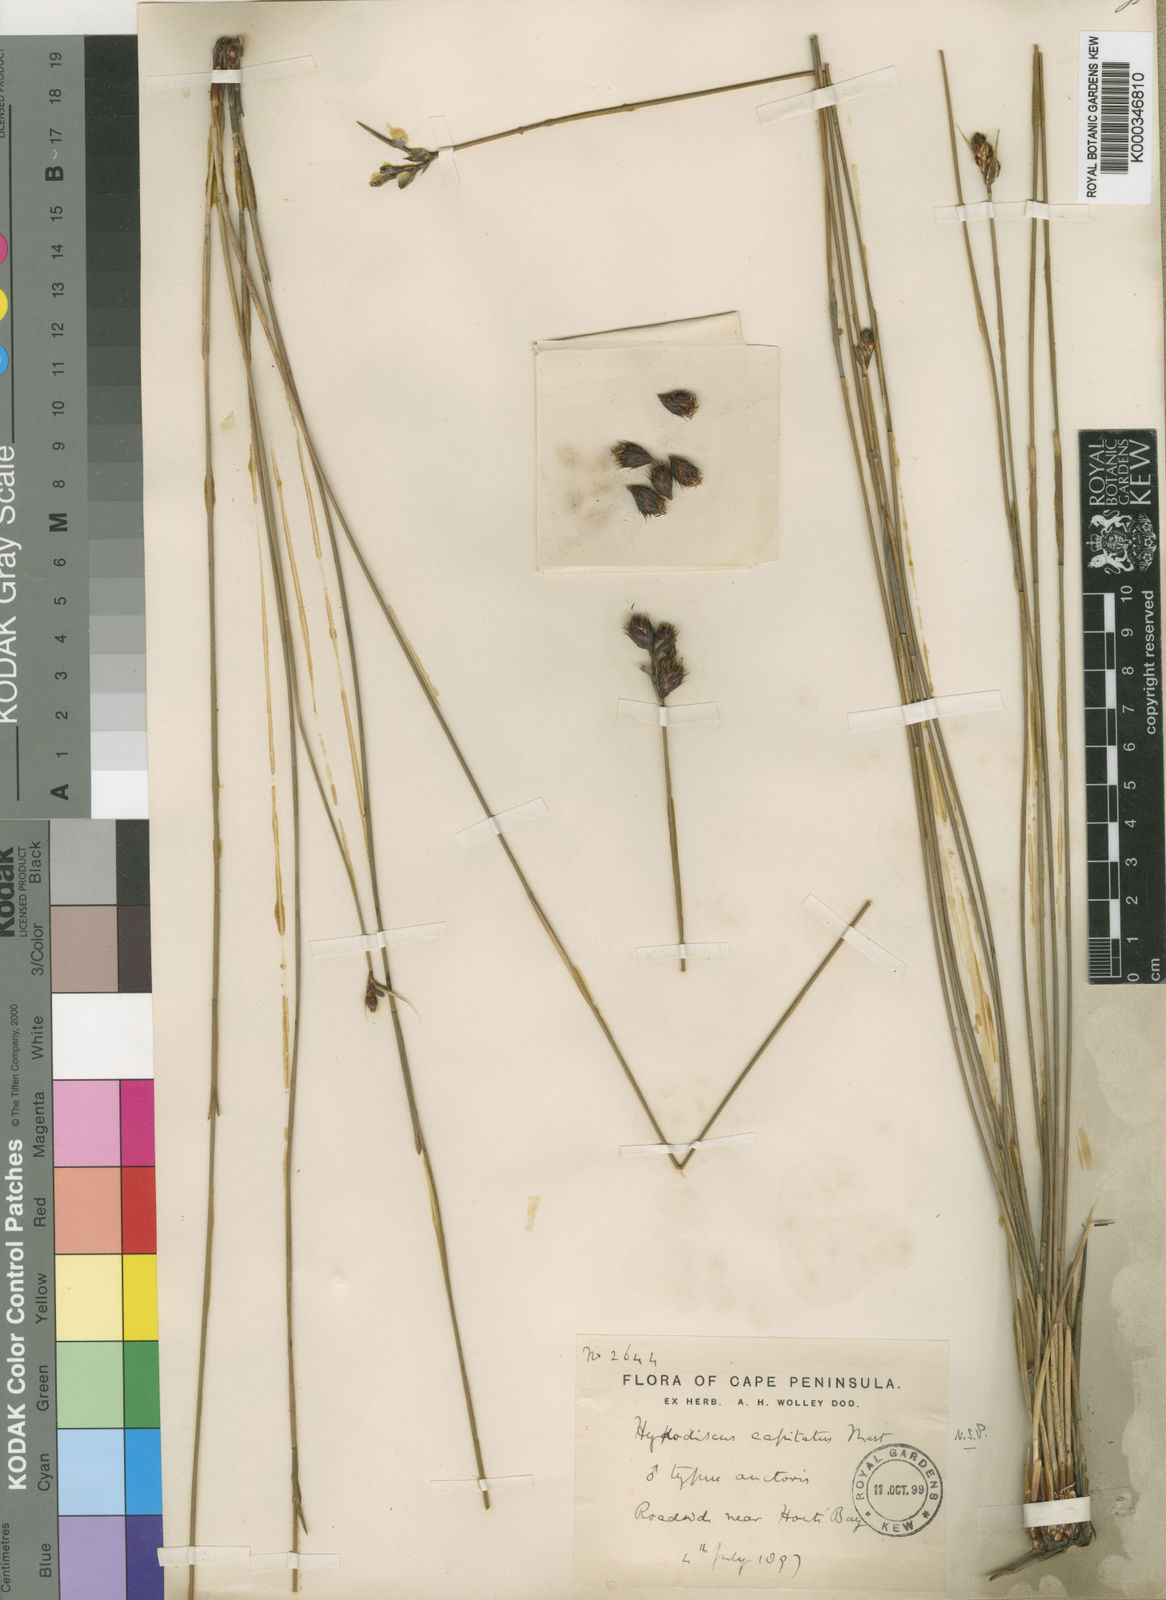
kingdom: Plantae
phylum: Tracheophyta
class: Liliopsida
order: Poales
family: Restionaceae
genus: Hypodiscus
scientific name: Hypodiscus alboaristatus
